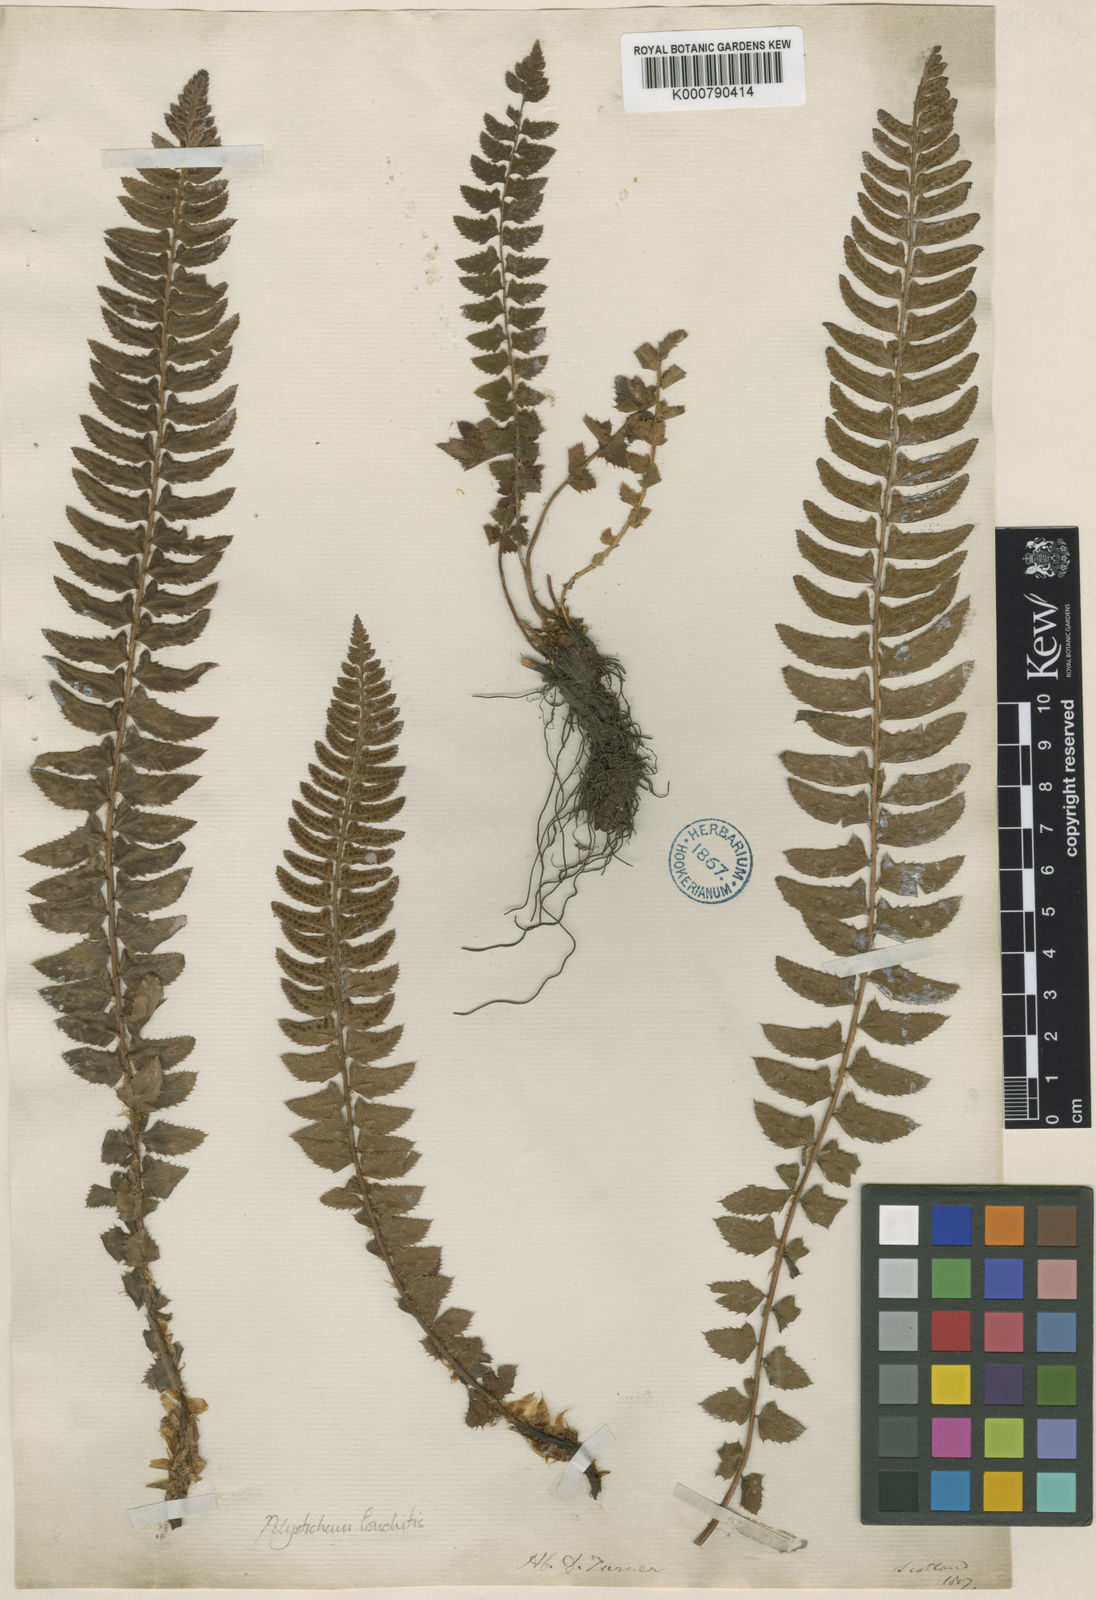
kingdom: Plantae
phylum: Tracheophyta
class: Polypodiopsida
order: Polypodiales
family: Dryopteridaceae
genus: Polystichum
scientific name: Polystichum
